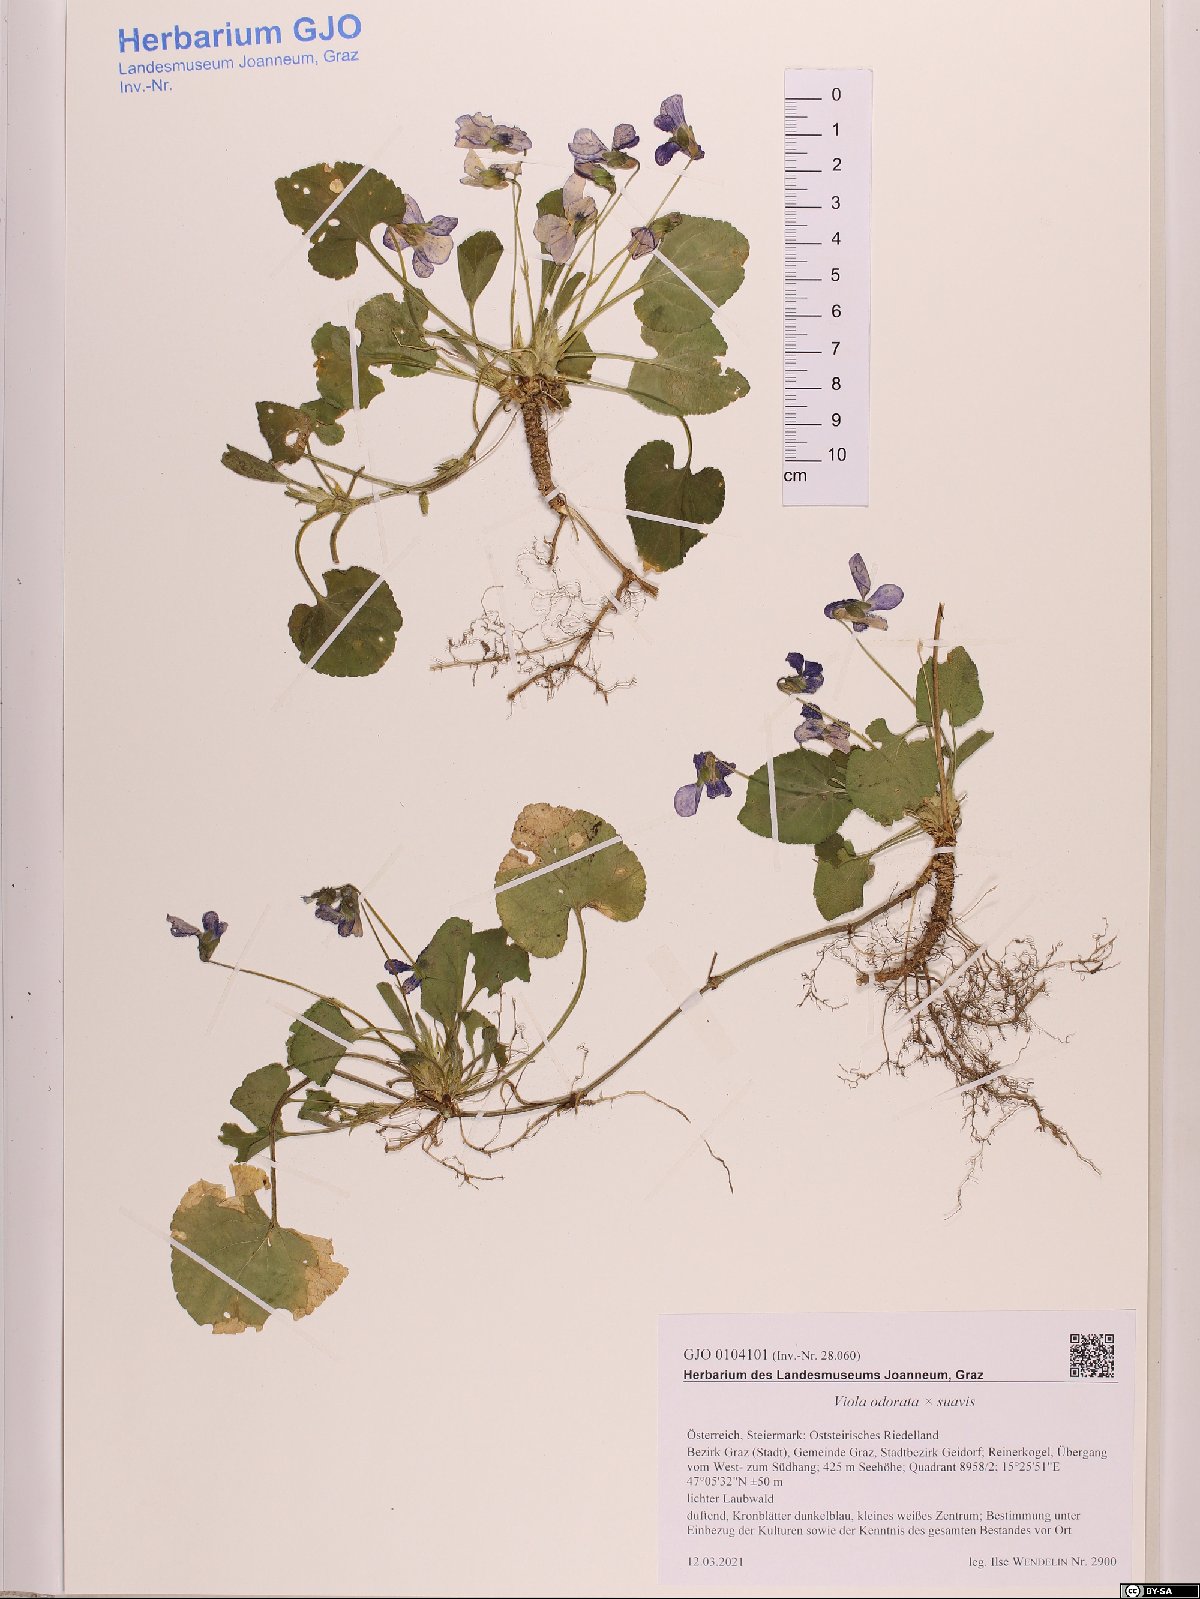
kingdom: Plantae
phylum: Tracheophyta
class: Magnoliopsida
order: Malpighiales
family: Violaceae
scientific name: Violaceae
